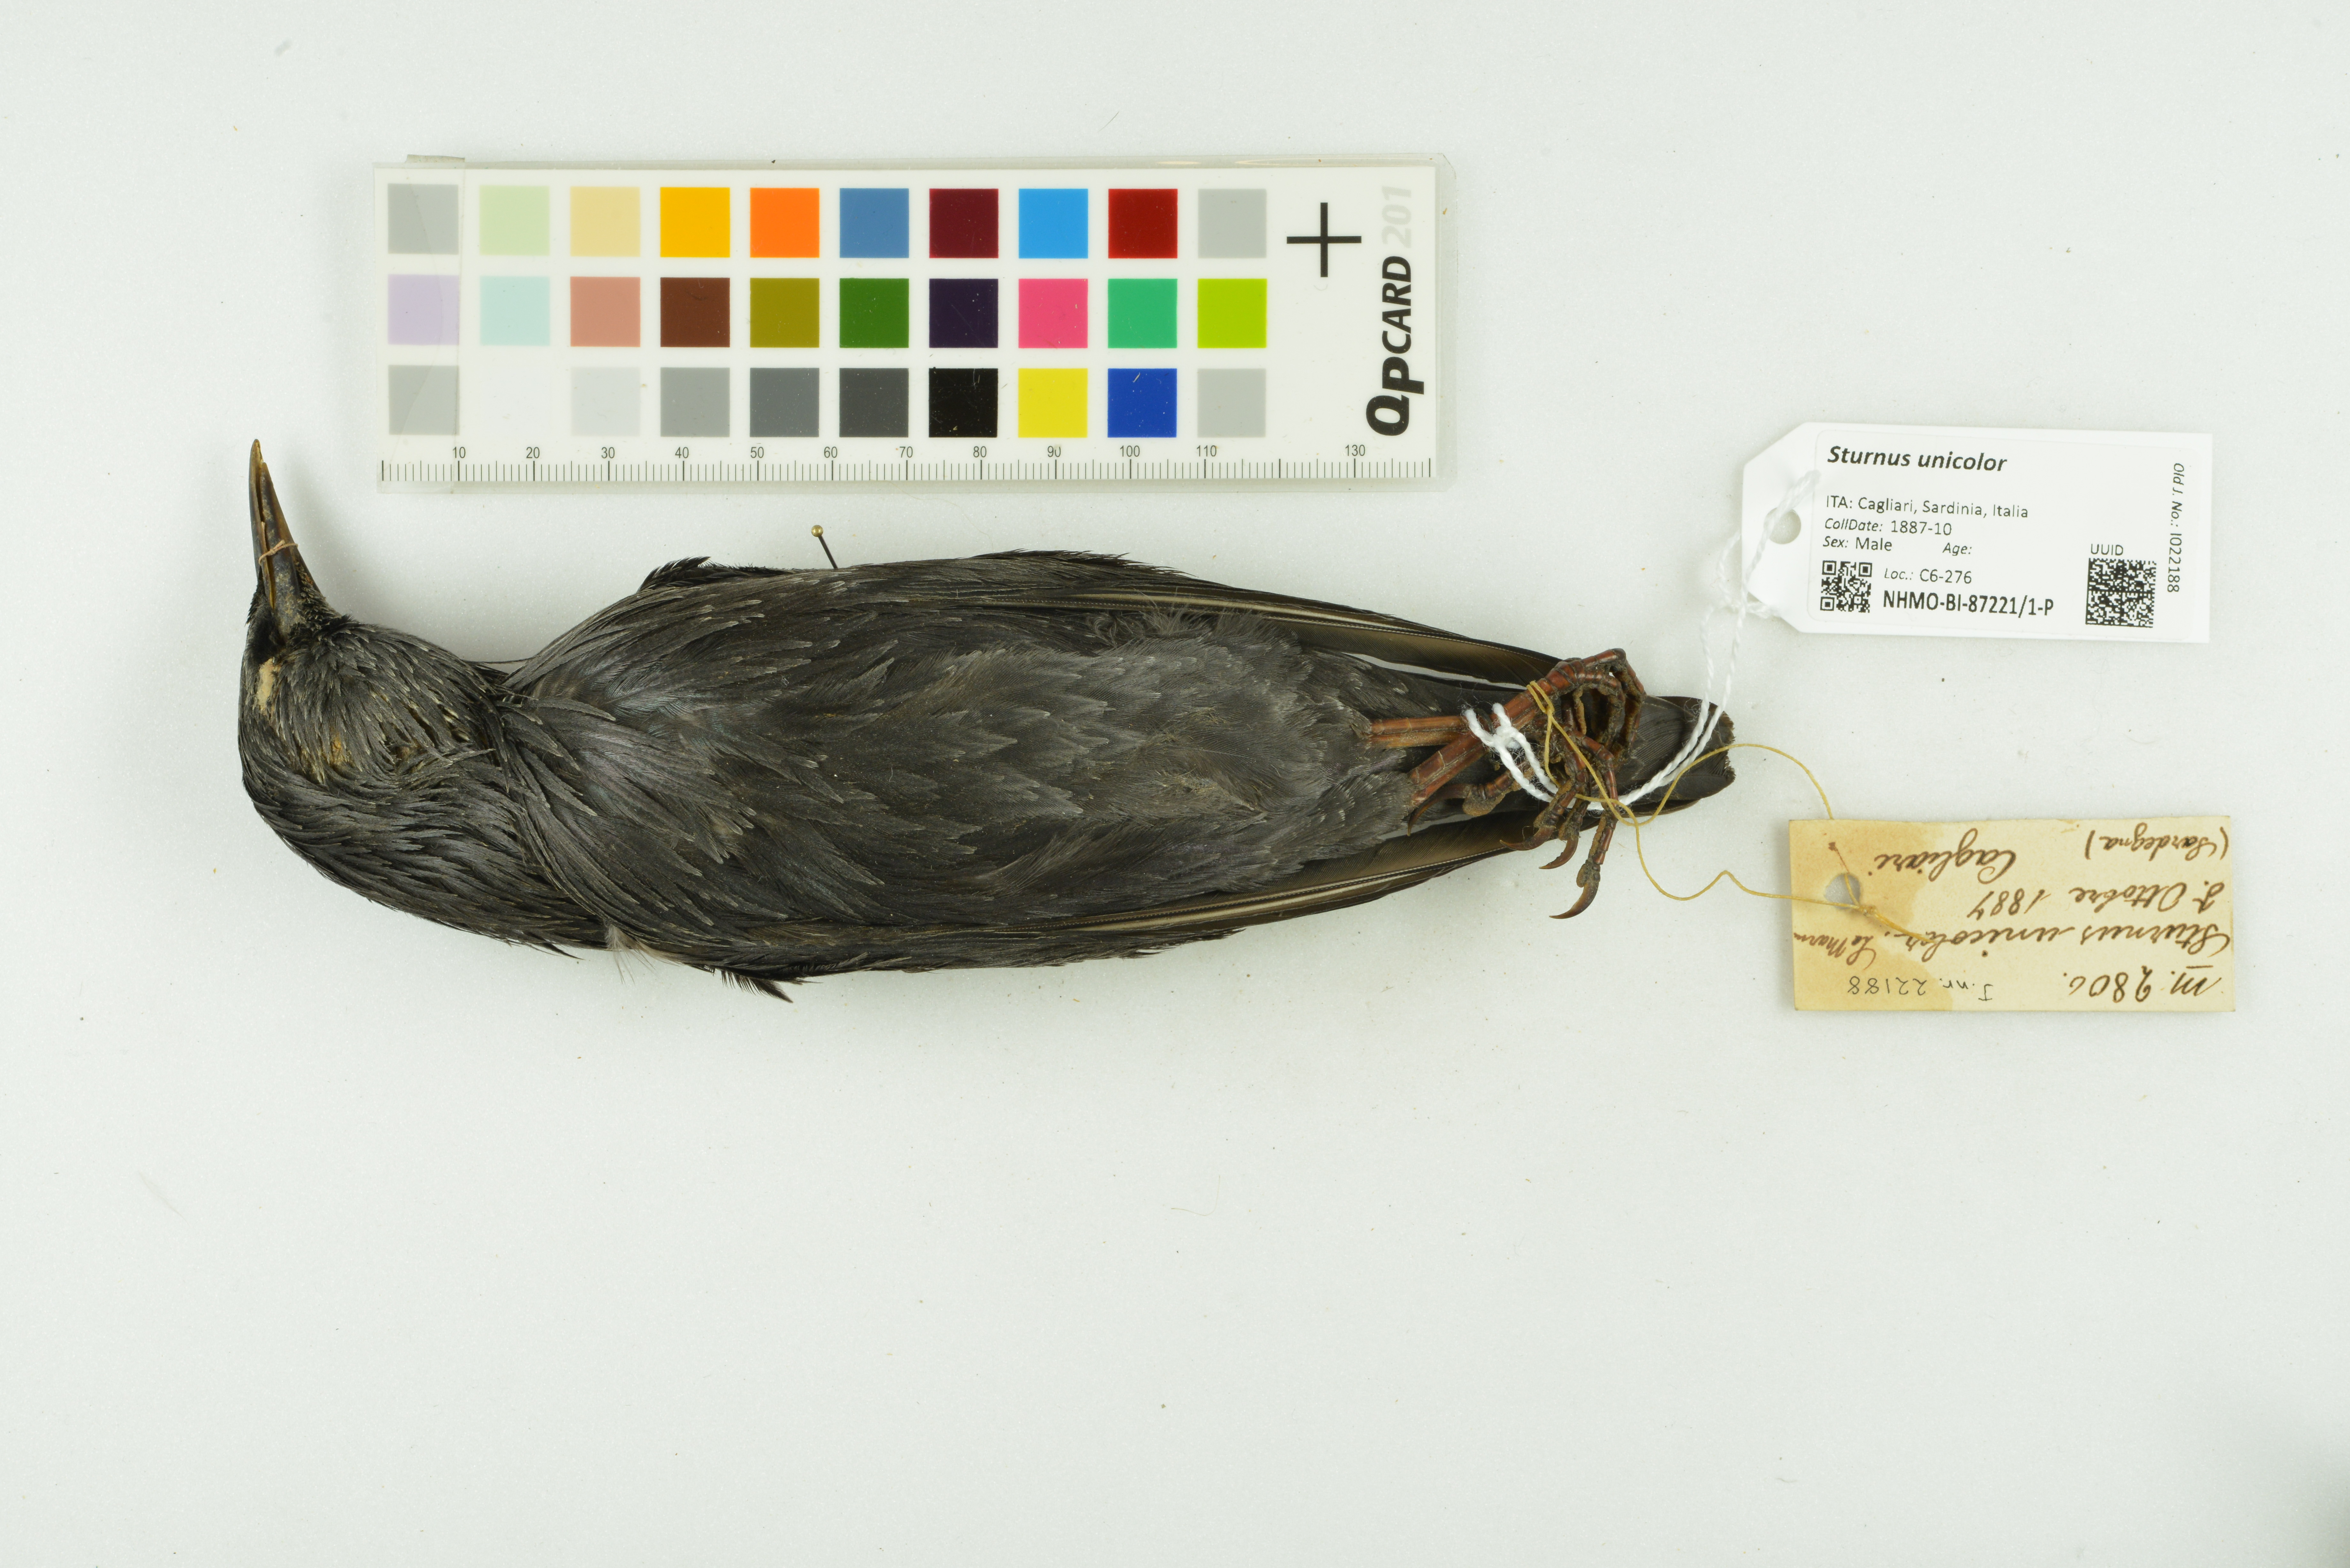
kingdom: Animalia
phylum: Chordata
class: Aves
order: Passeriformes
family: Sturnidae
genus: Sturnus
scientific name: Sturnus unicolor
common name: Spotless starling
